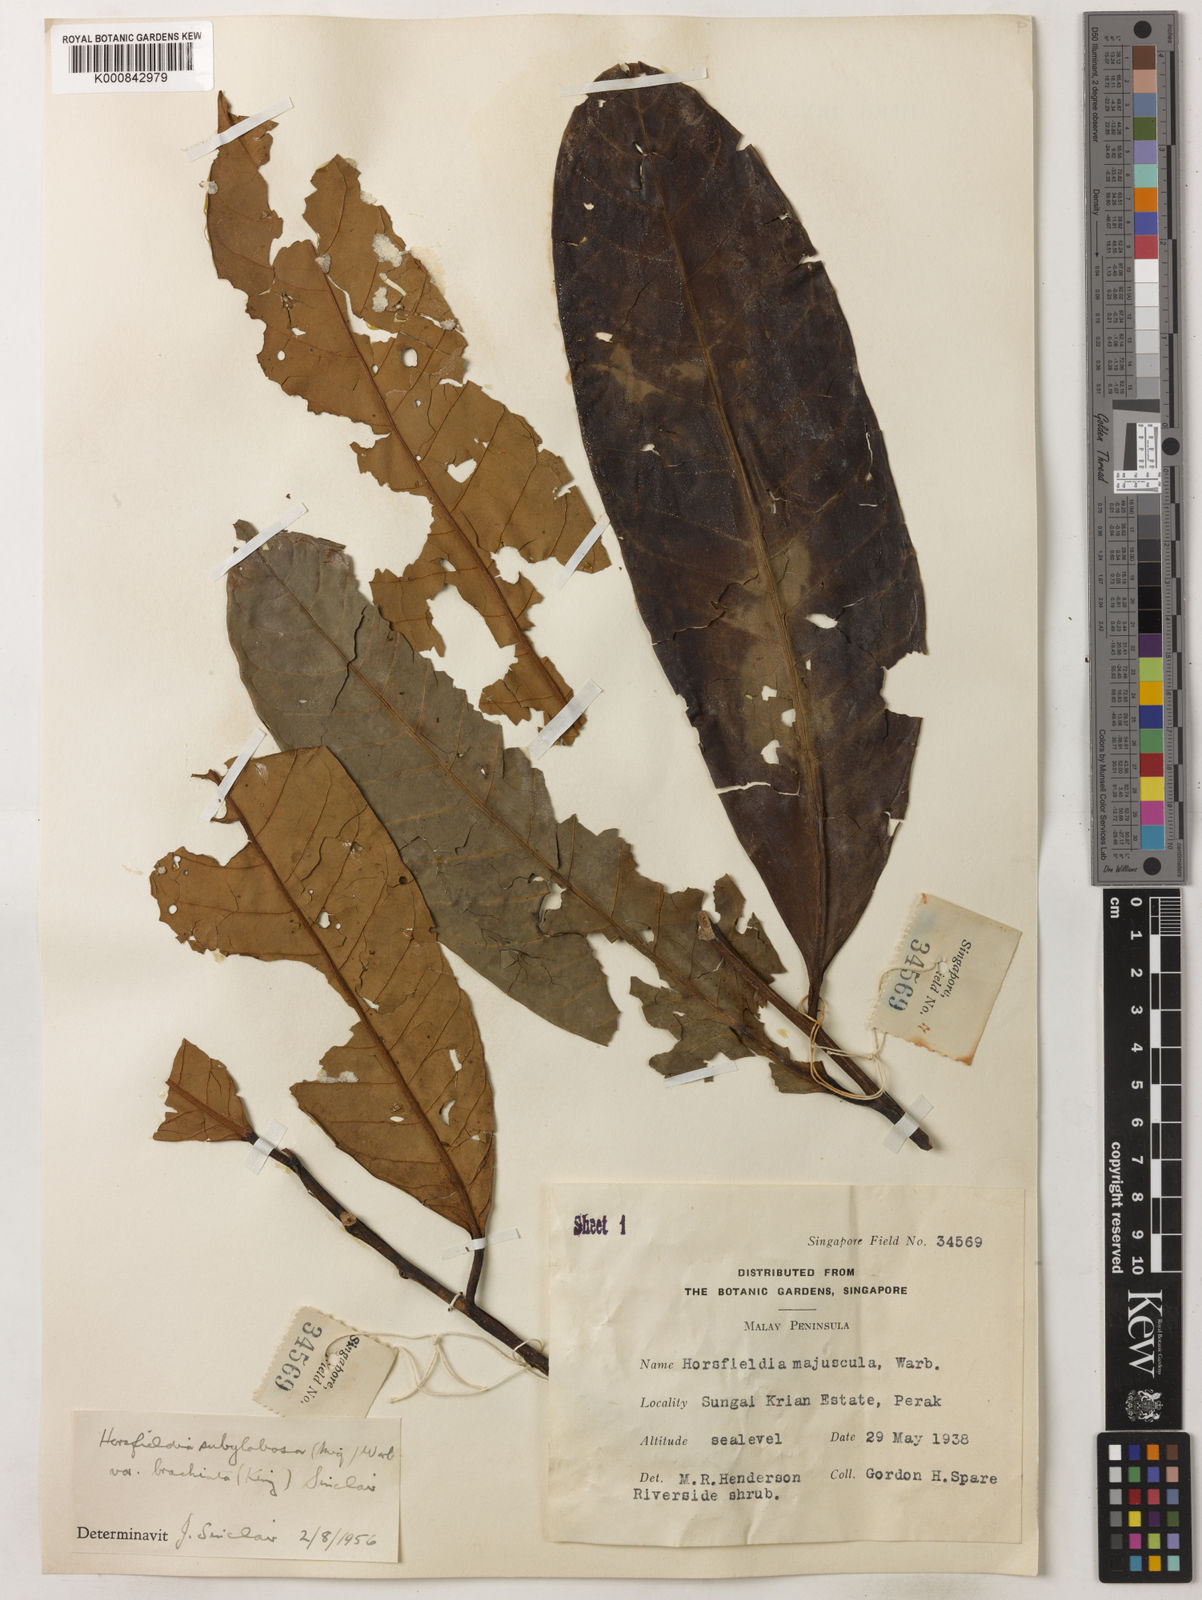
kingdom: Plantae
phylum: Tracheophyta
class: Magnoliopsida
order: Magnoliales
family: Myristicaceae
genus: Horsfieldia
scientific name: Horsfieldia brachiata
